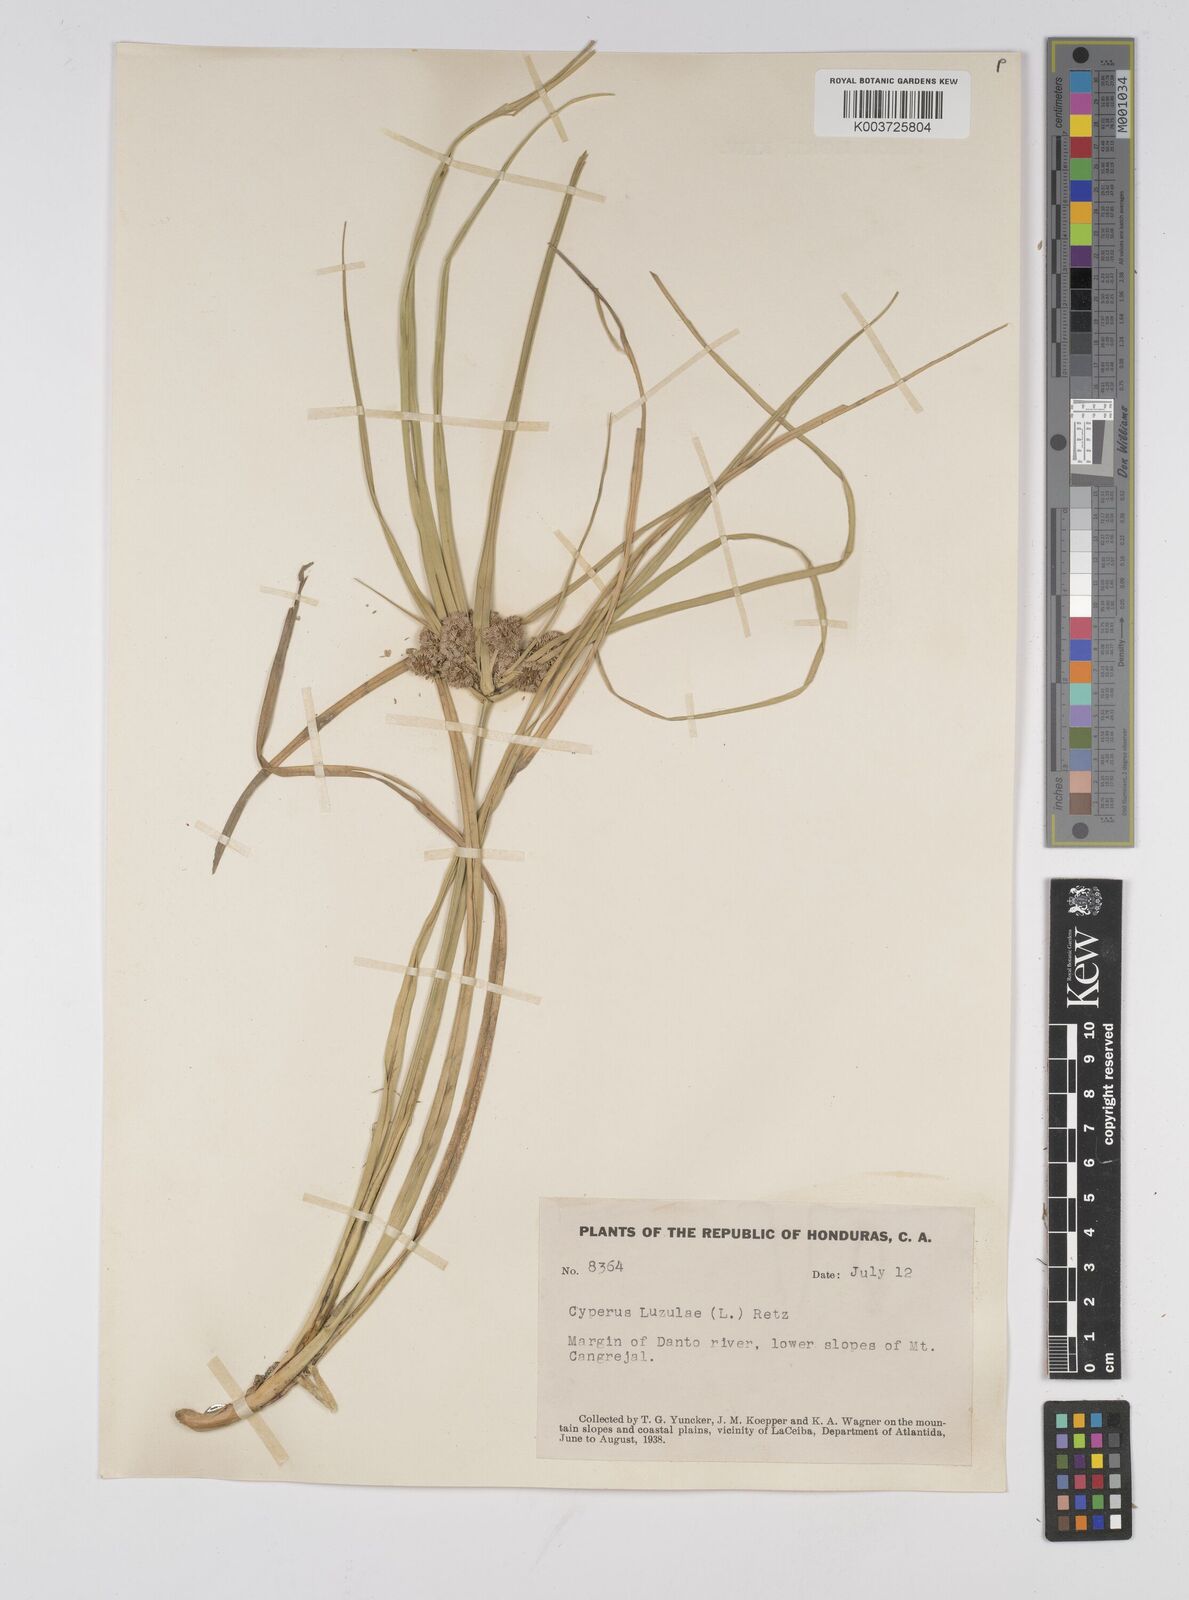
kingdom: Plantae
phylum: Tracheophyta
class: Liliopsida
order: Poales
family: Cyperaceae
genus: Cyperus
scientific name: Cyperus luzulae
